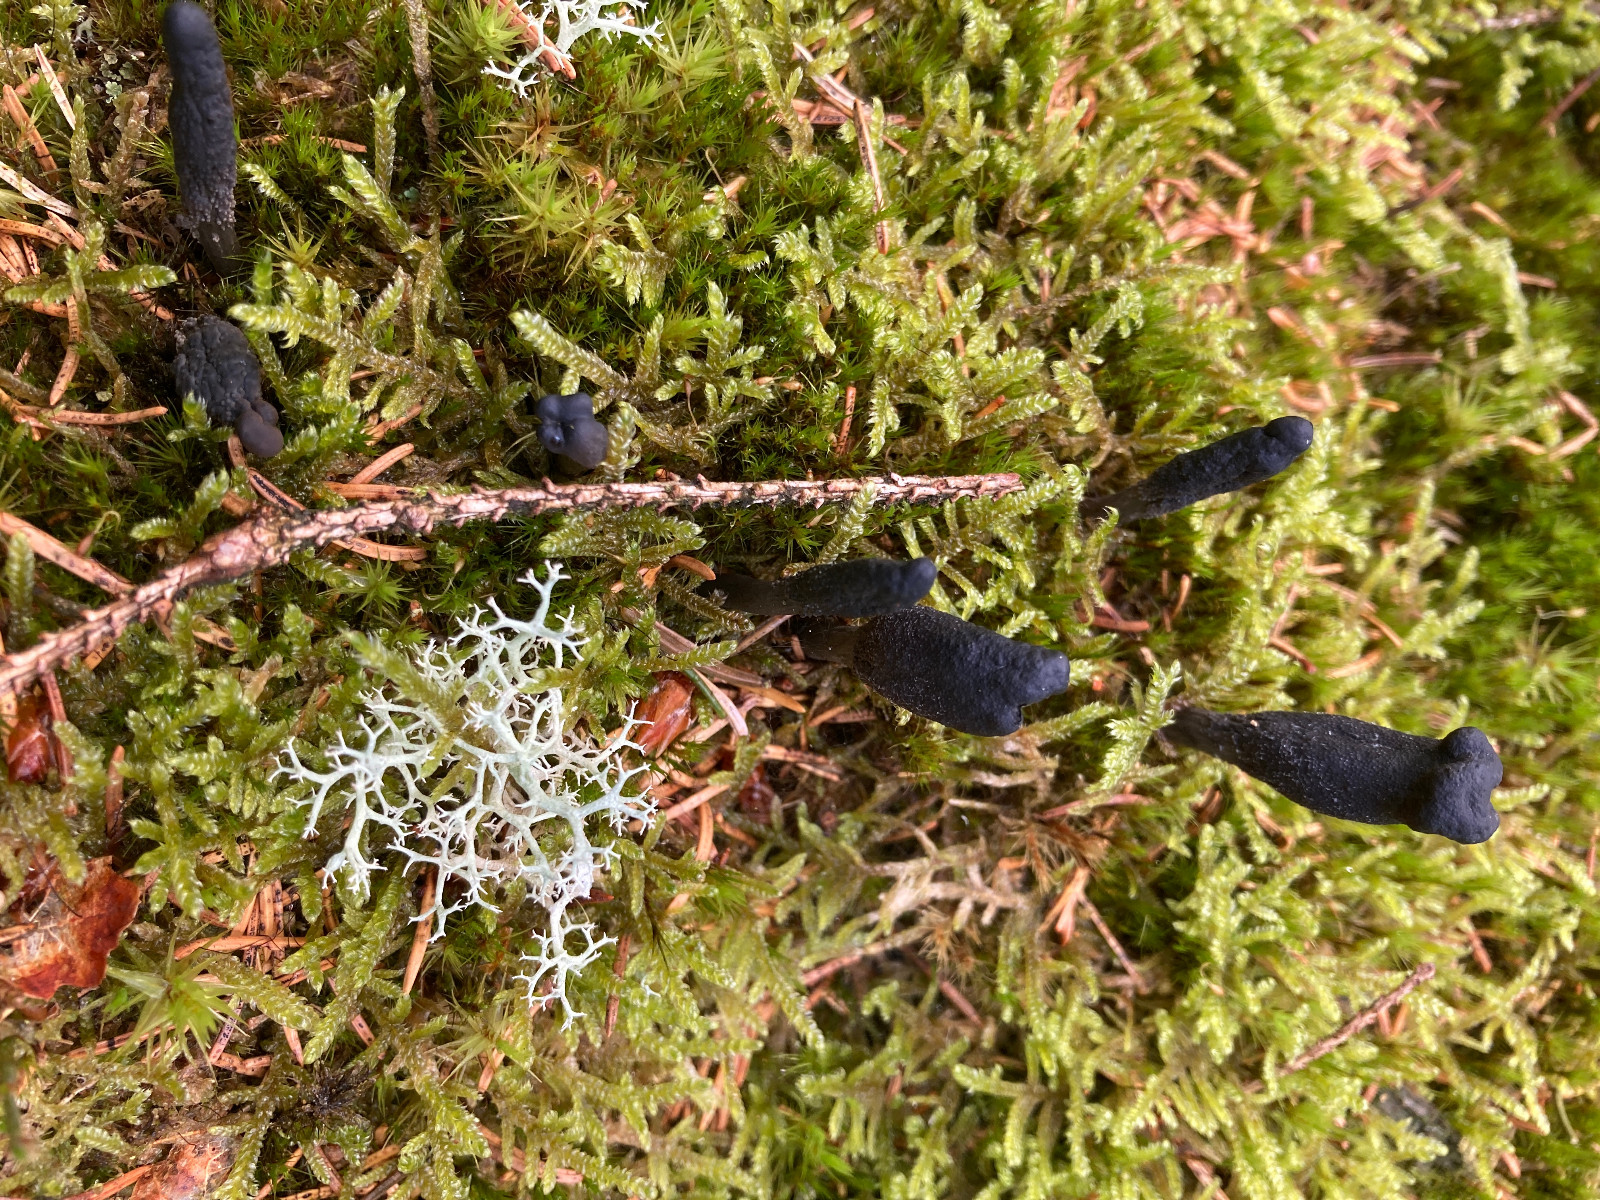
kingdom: Fungi
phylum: Ascomycota
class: Sordariomycetes
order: Hypocreales
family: Ophiocordycipitaceae
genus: Tolypocladium
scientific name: Tolypocladium ophioglossoides
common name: slank snyltekølle
